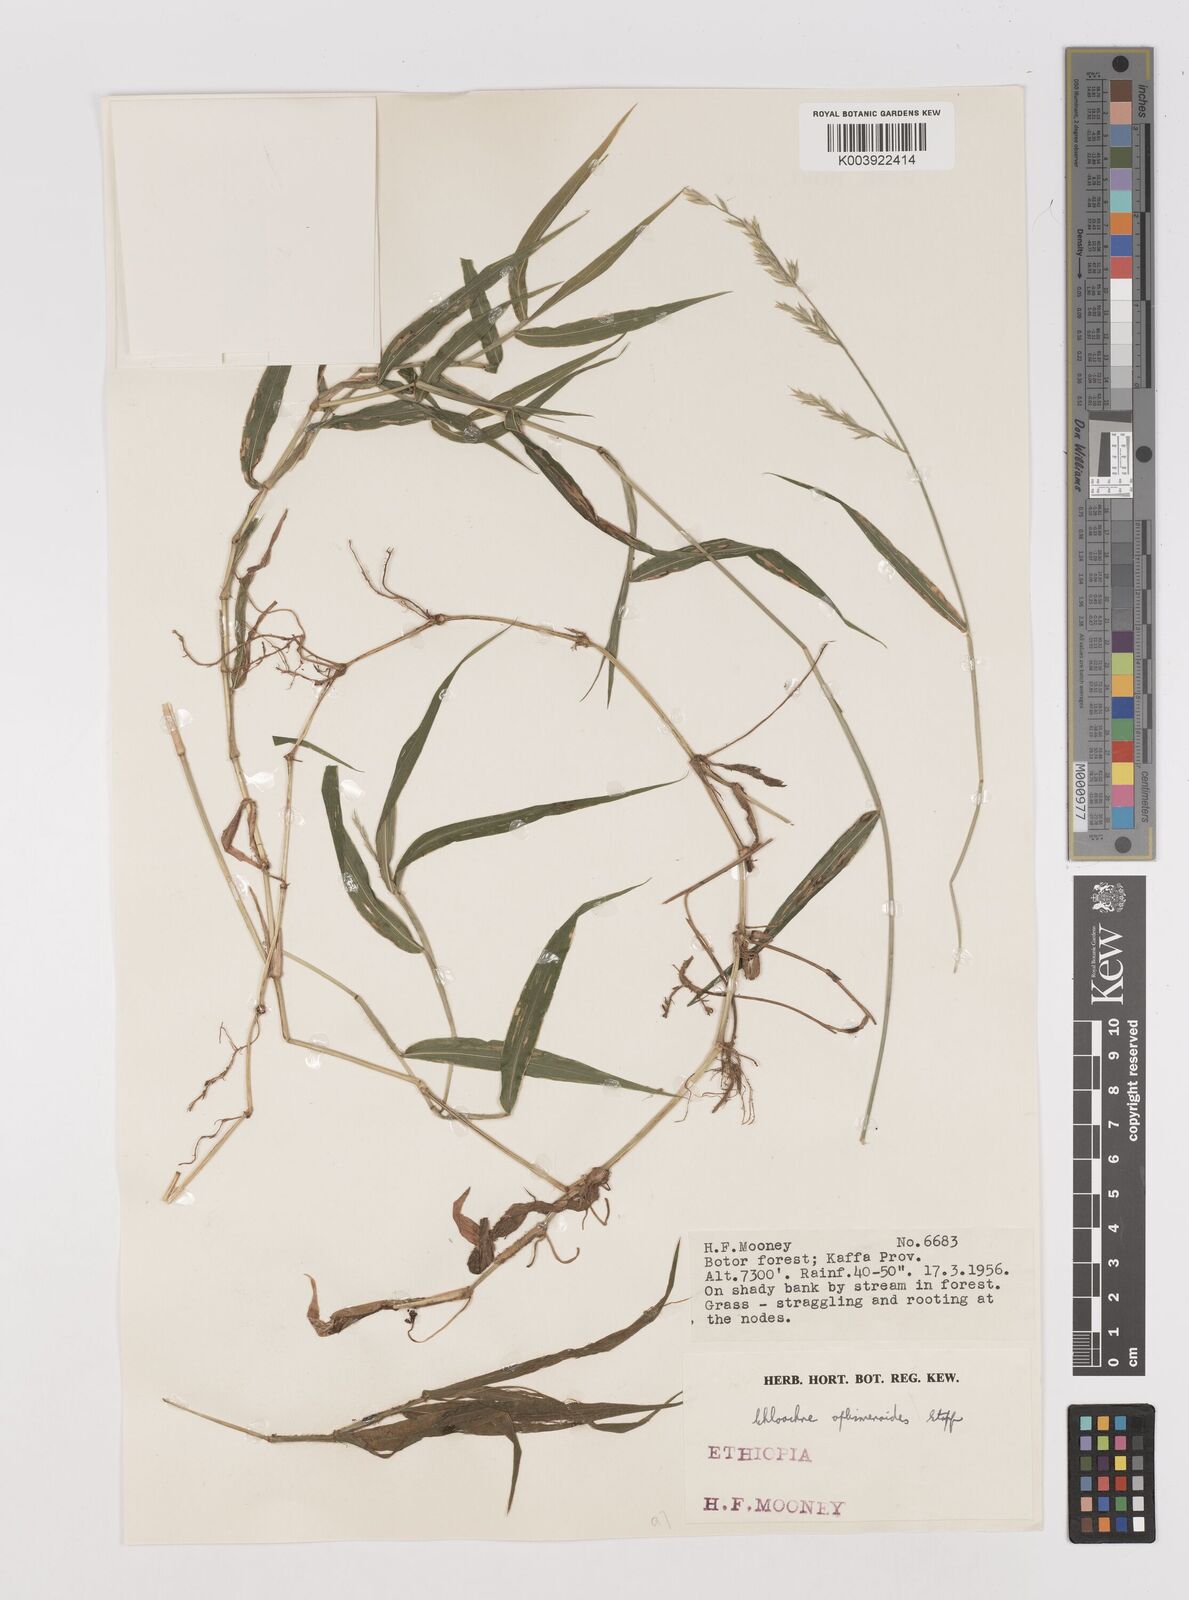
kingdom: Plantae
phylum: Tracheophyta
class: Liliopsida
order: Poales
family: Poaceae
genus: Poecilostachys
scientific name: Poecilostachys oplismenoides
